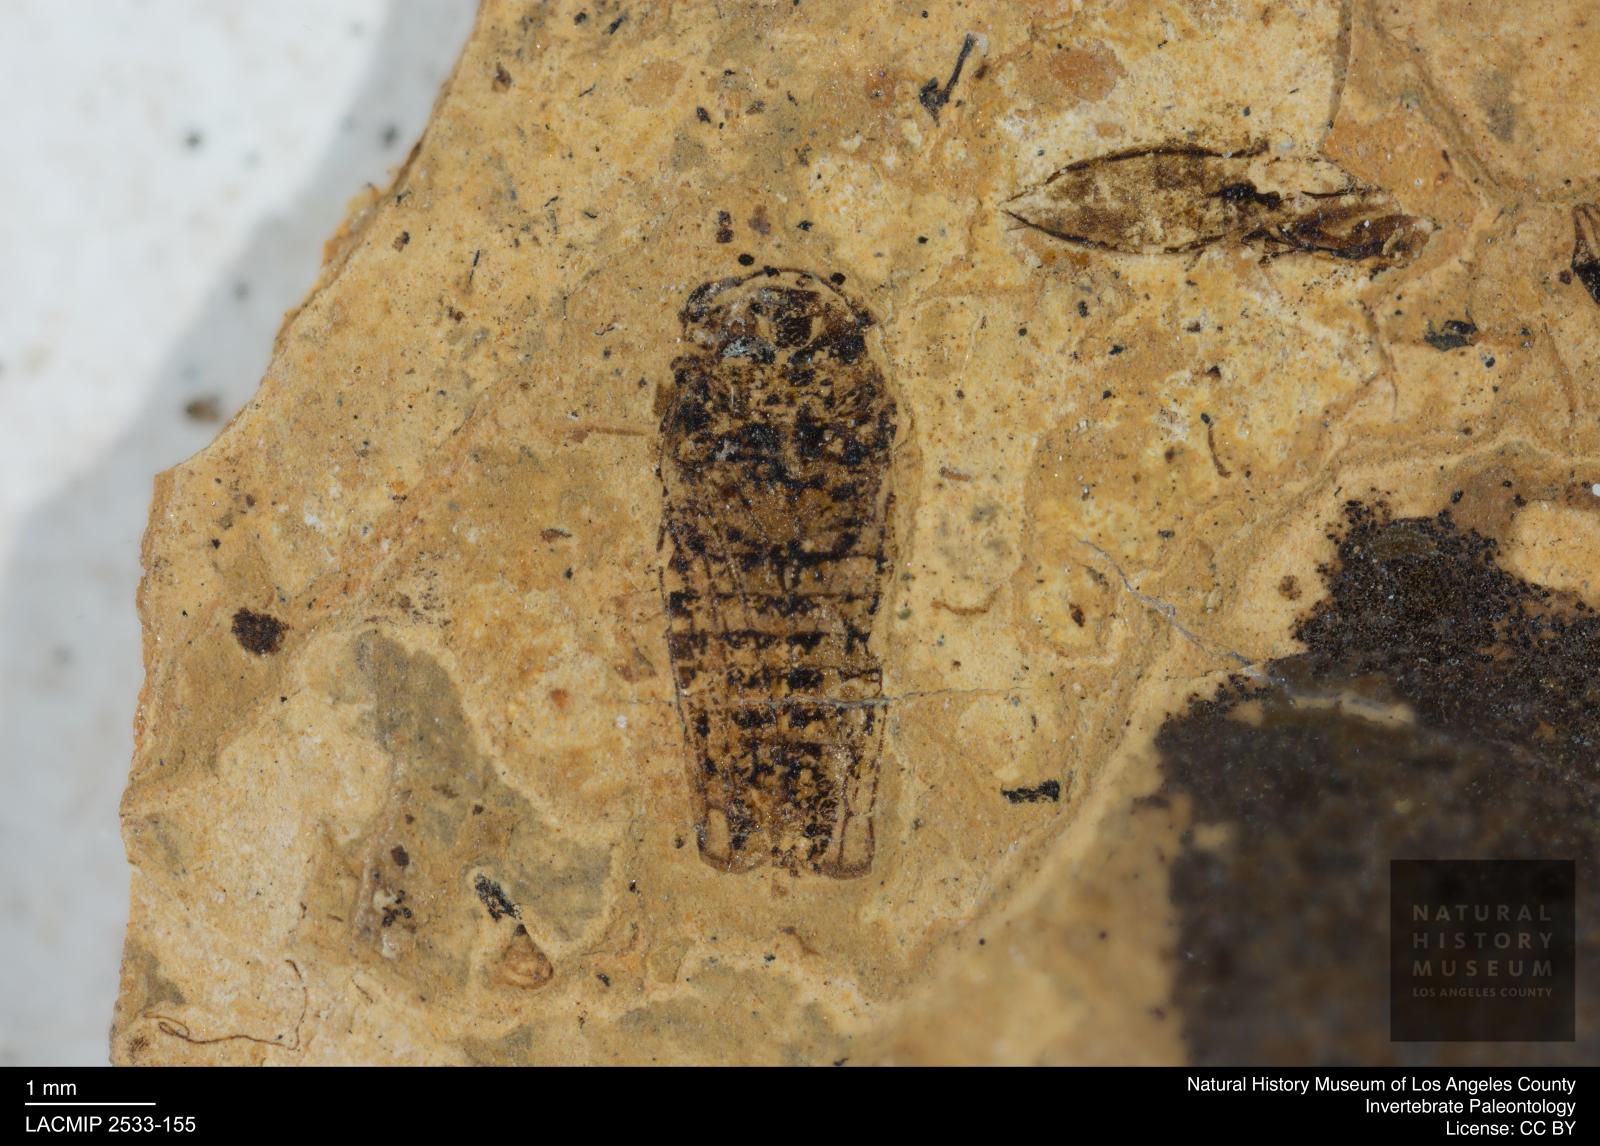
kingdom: Animalia
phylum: Arthropoda
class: Insecta
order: Hemiptera
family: Cicadellidae
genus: Iassus
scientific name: Iassus sepultus
